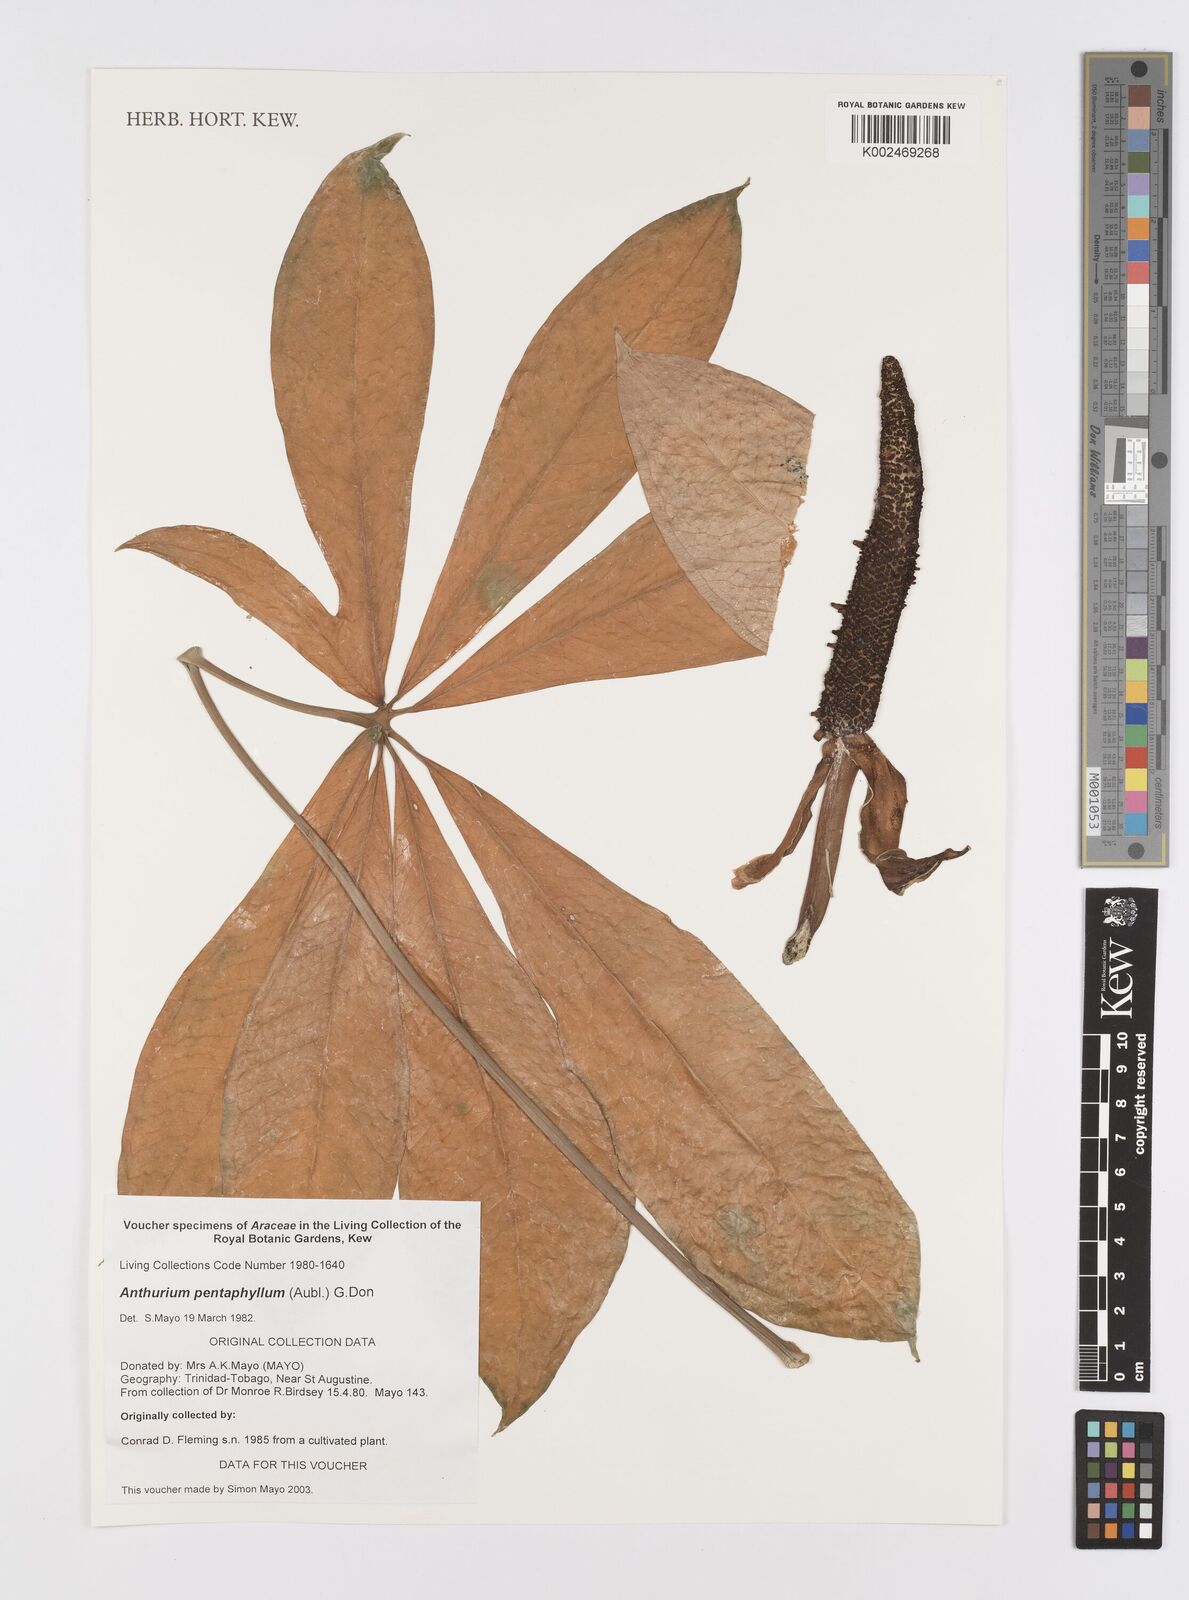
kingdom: Plantae
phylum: Tracheophyta
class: Liliopsida
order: Alismatales
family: Araceae
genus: Anthurium
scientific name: Anthurium pentaphyllum
